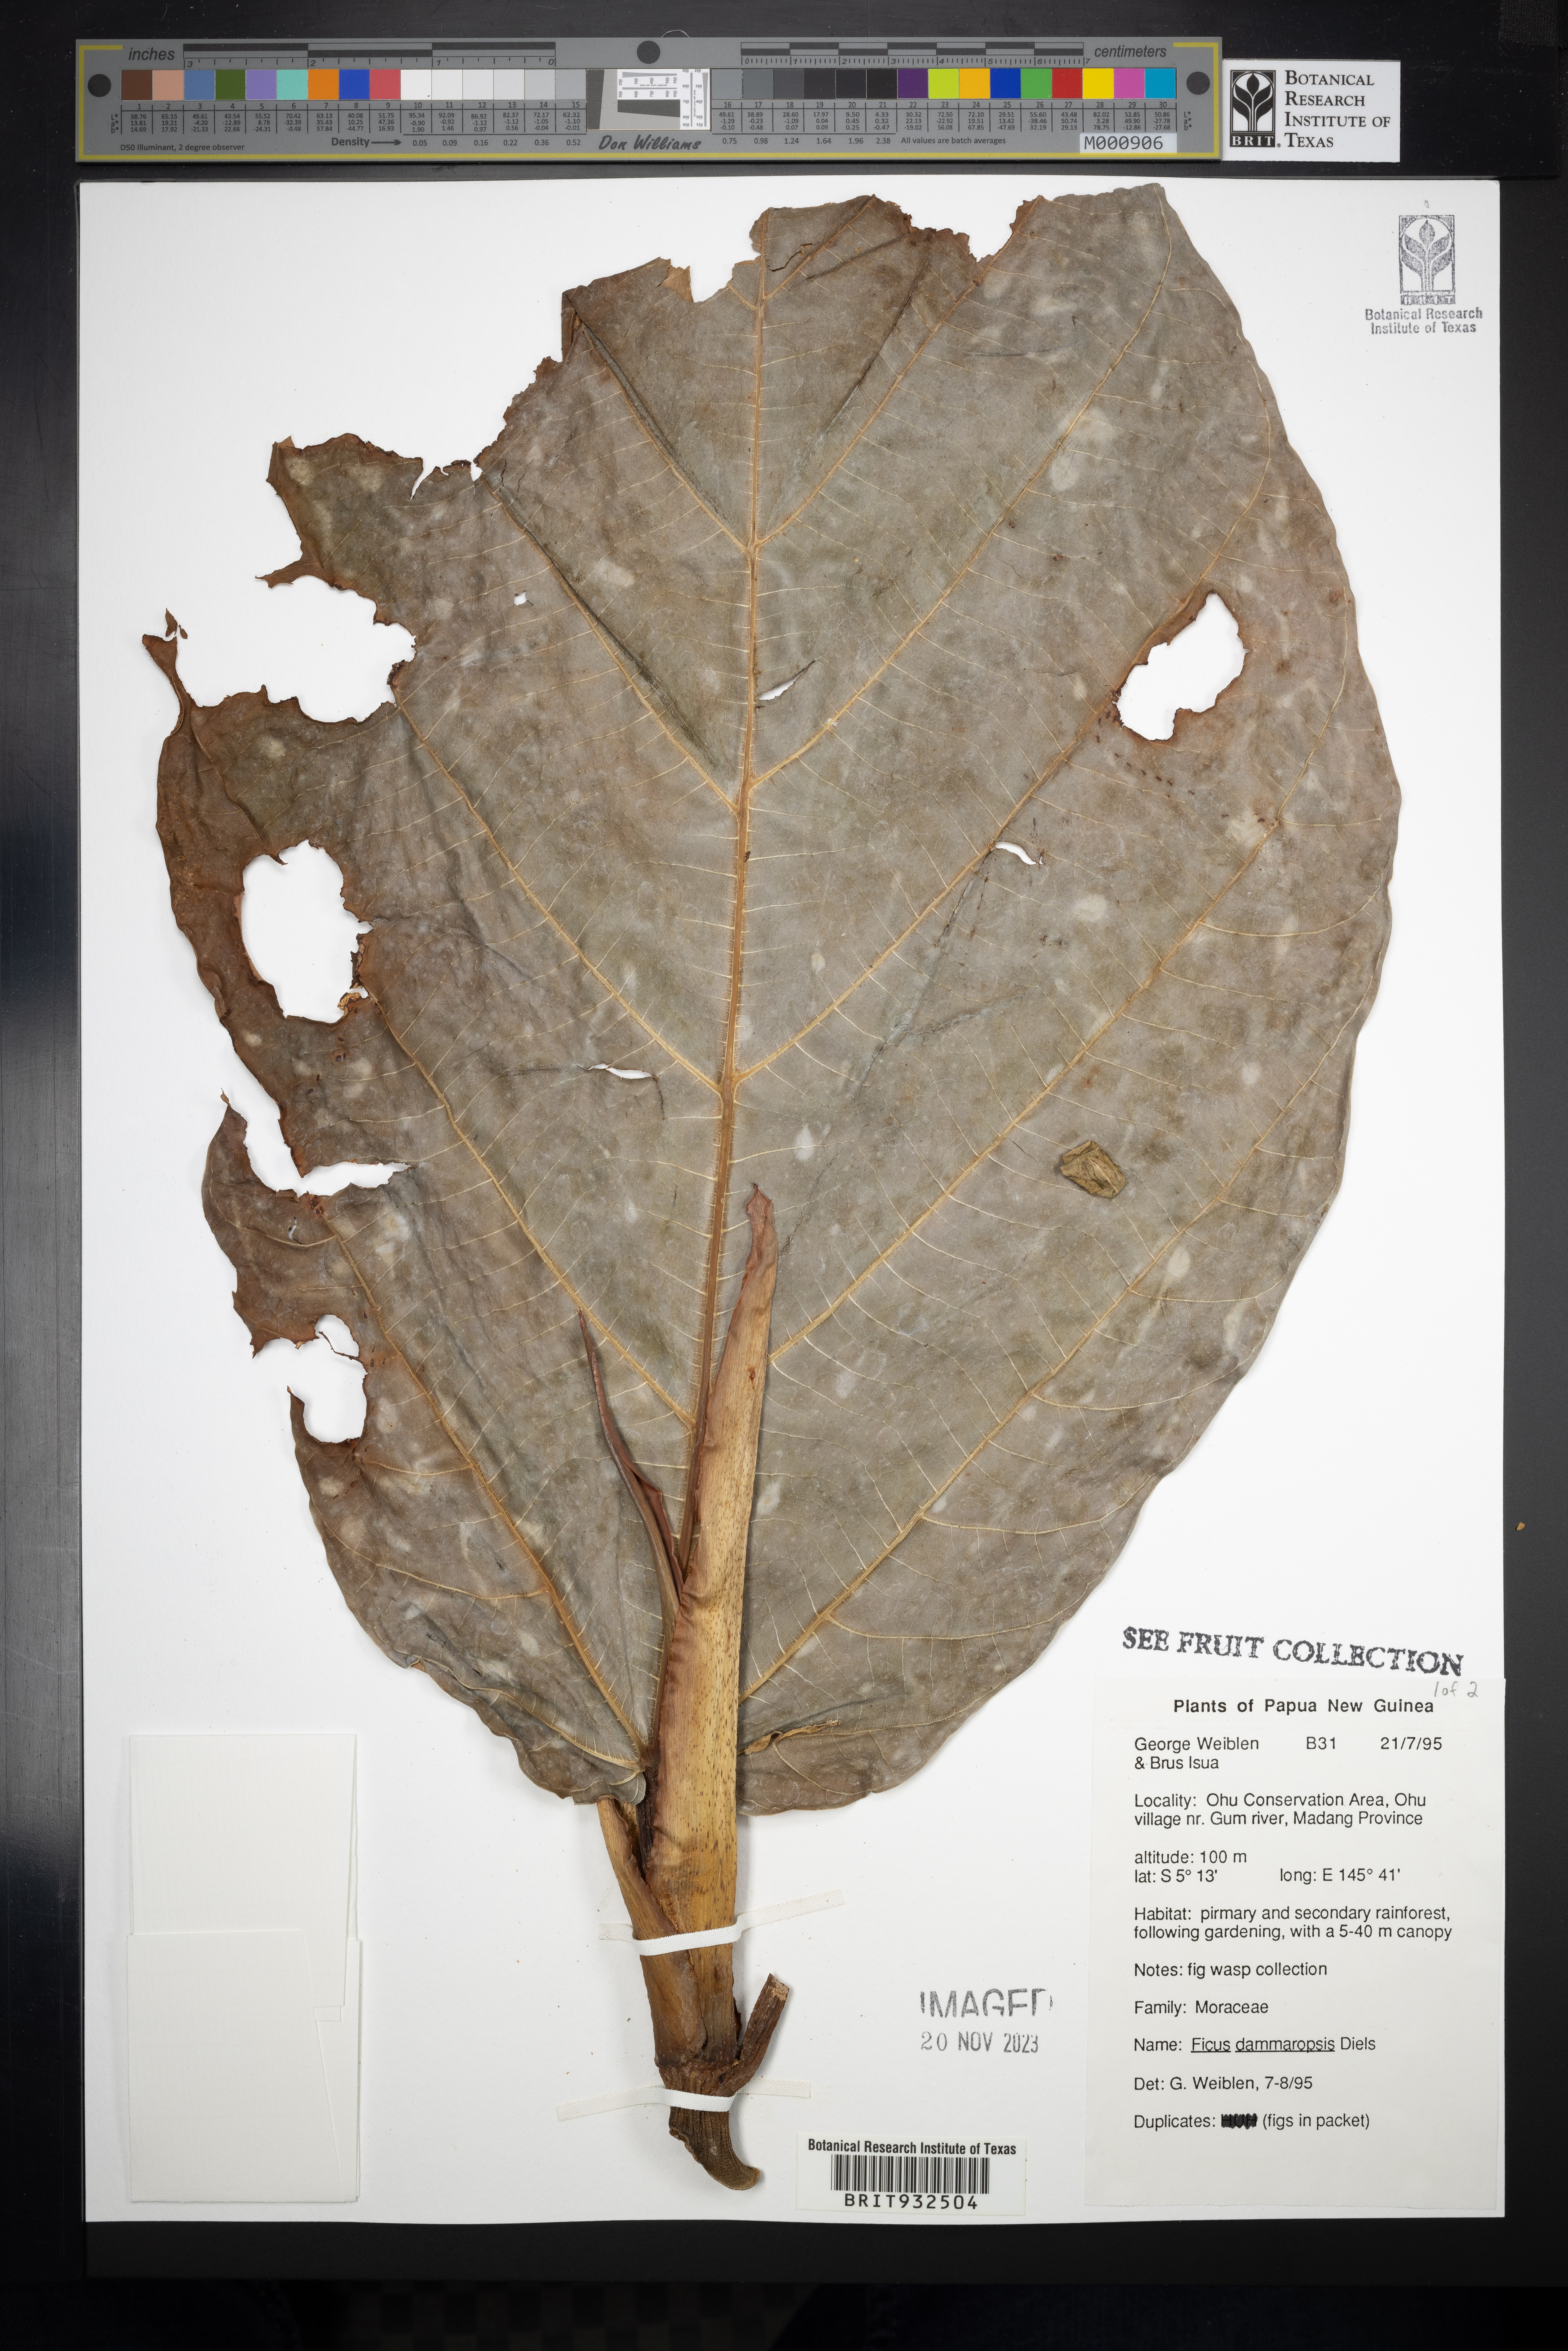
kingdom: Plantae
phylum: Tracheophyta
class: Magnoliopsida
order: Rosales
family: Moraceae
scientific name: Moraceae
